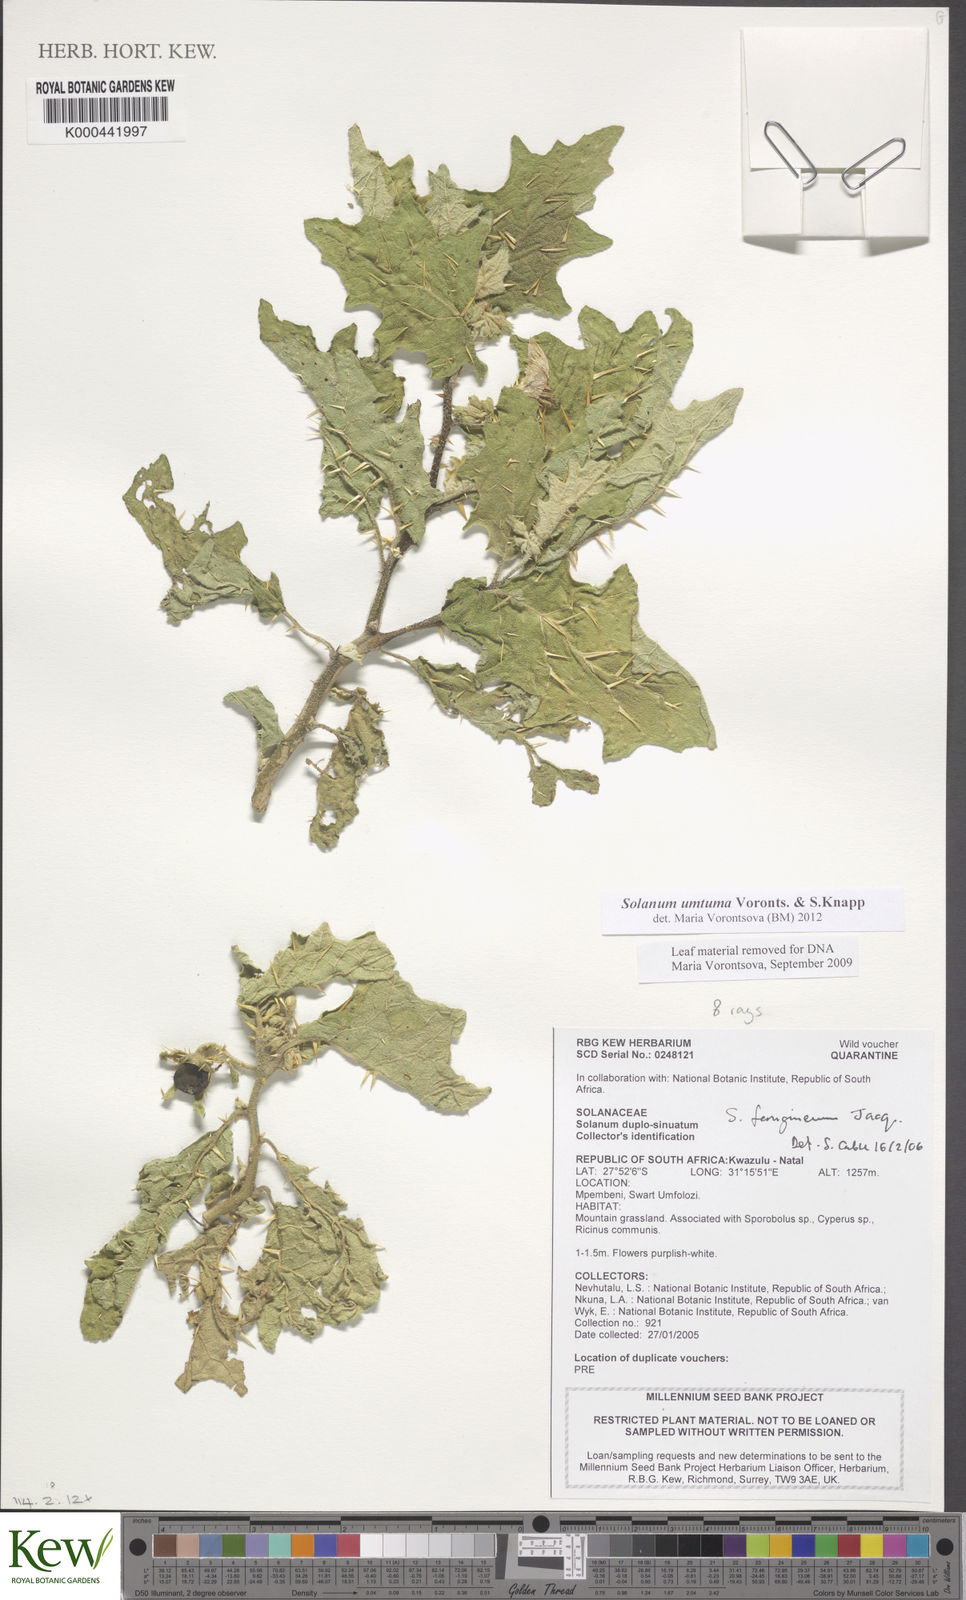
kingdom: Plantae
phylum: Tracheophyta
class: Magnoliopsida
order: Solanales
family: Solanaceae
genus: Solanum
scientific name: Solanum umtuma
